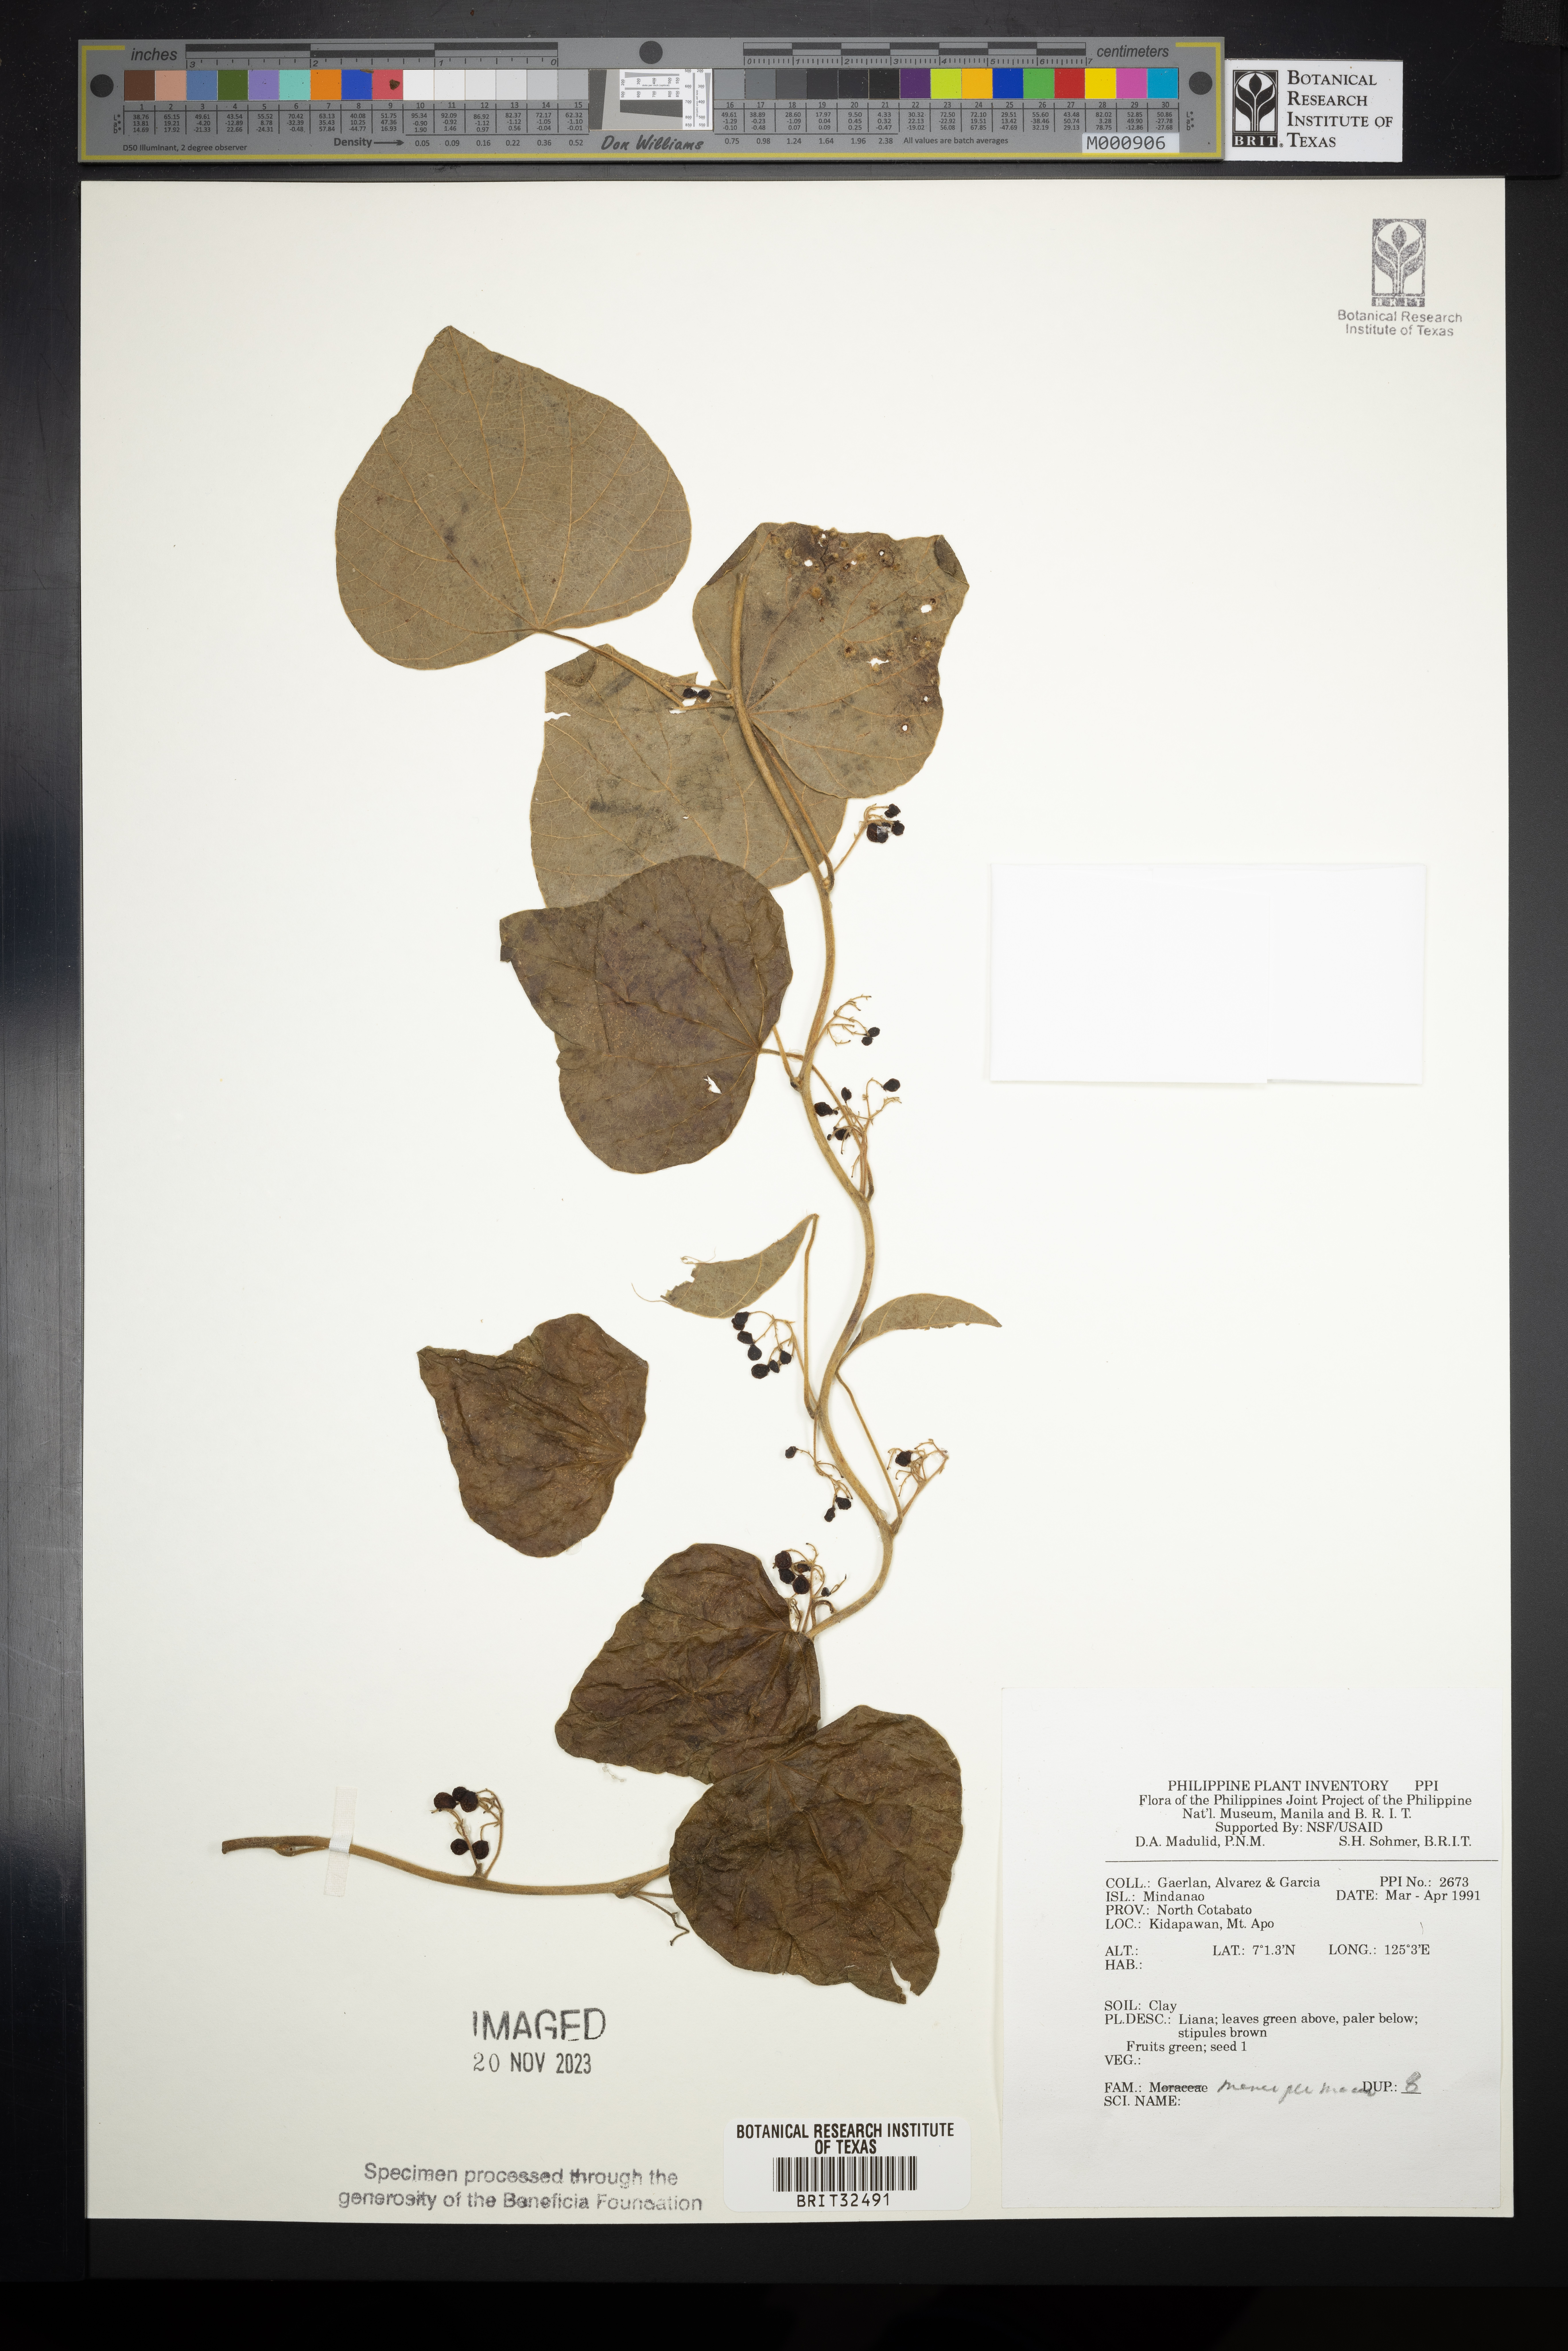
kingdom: Plantae
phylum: Tracheophyta
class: Magnoliopsida
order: Ranunculales
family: Menispermaceae
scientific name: Menispermaceae
